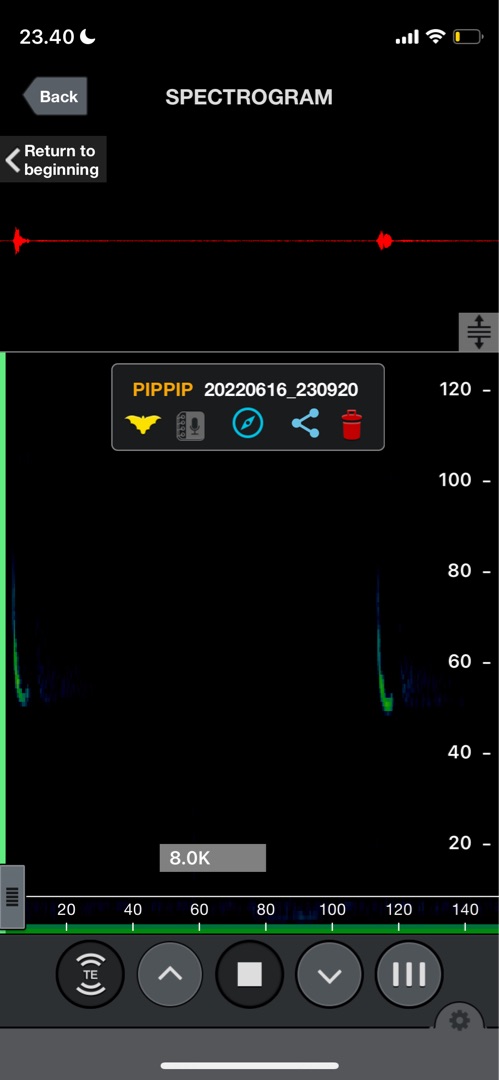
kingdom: Animalia
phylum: Chordata
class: Mammalia
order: Chiroptera
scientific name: Chiroptera
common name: Flagermus
